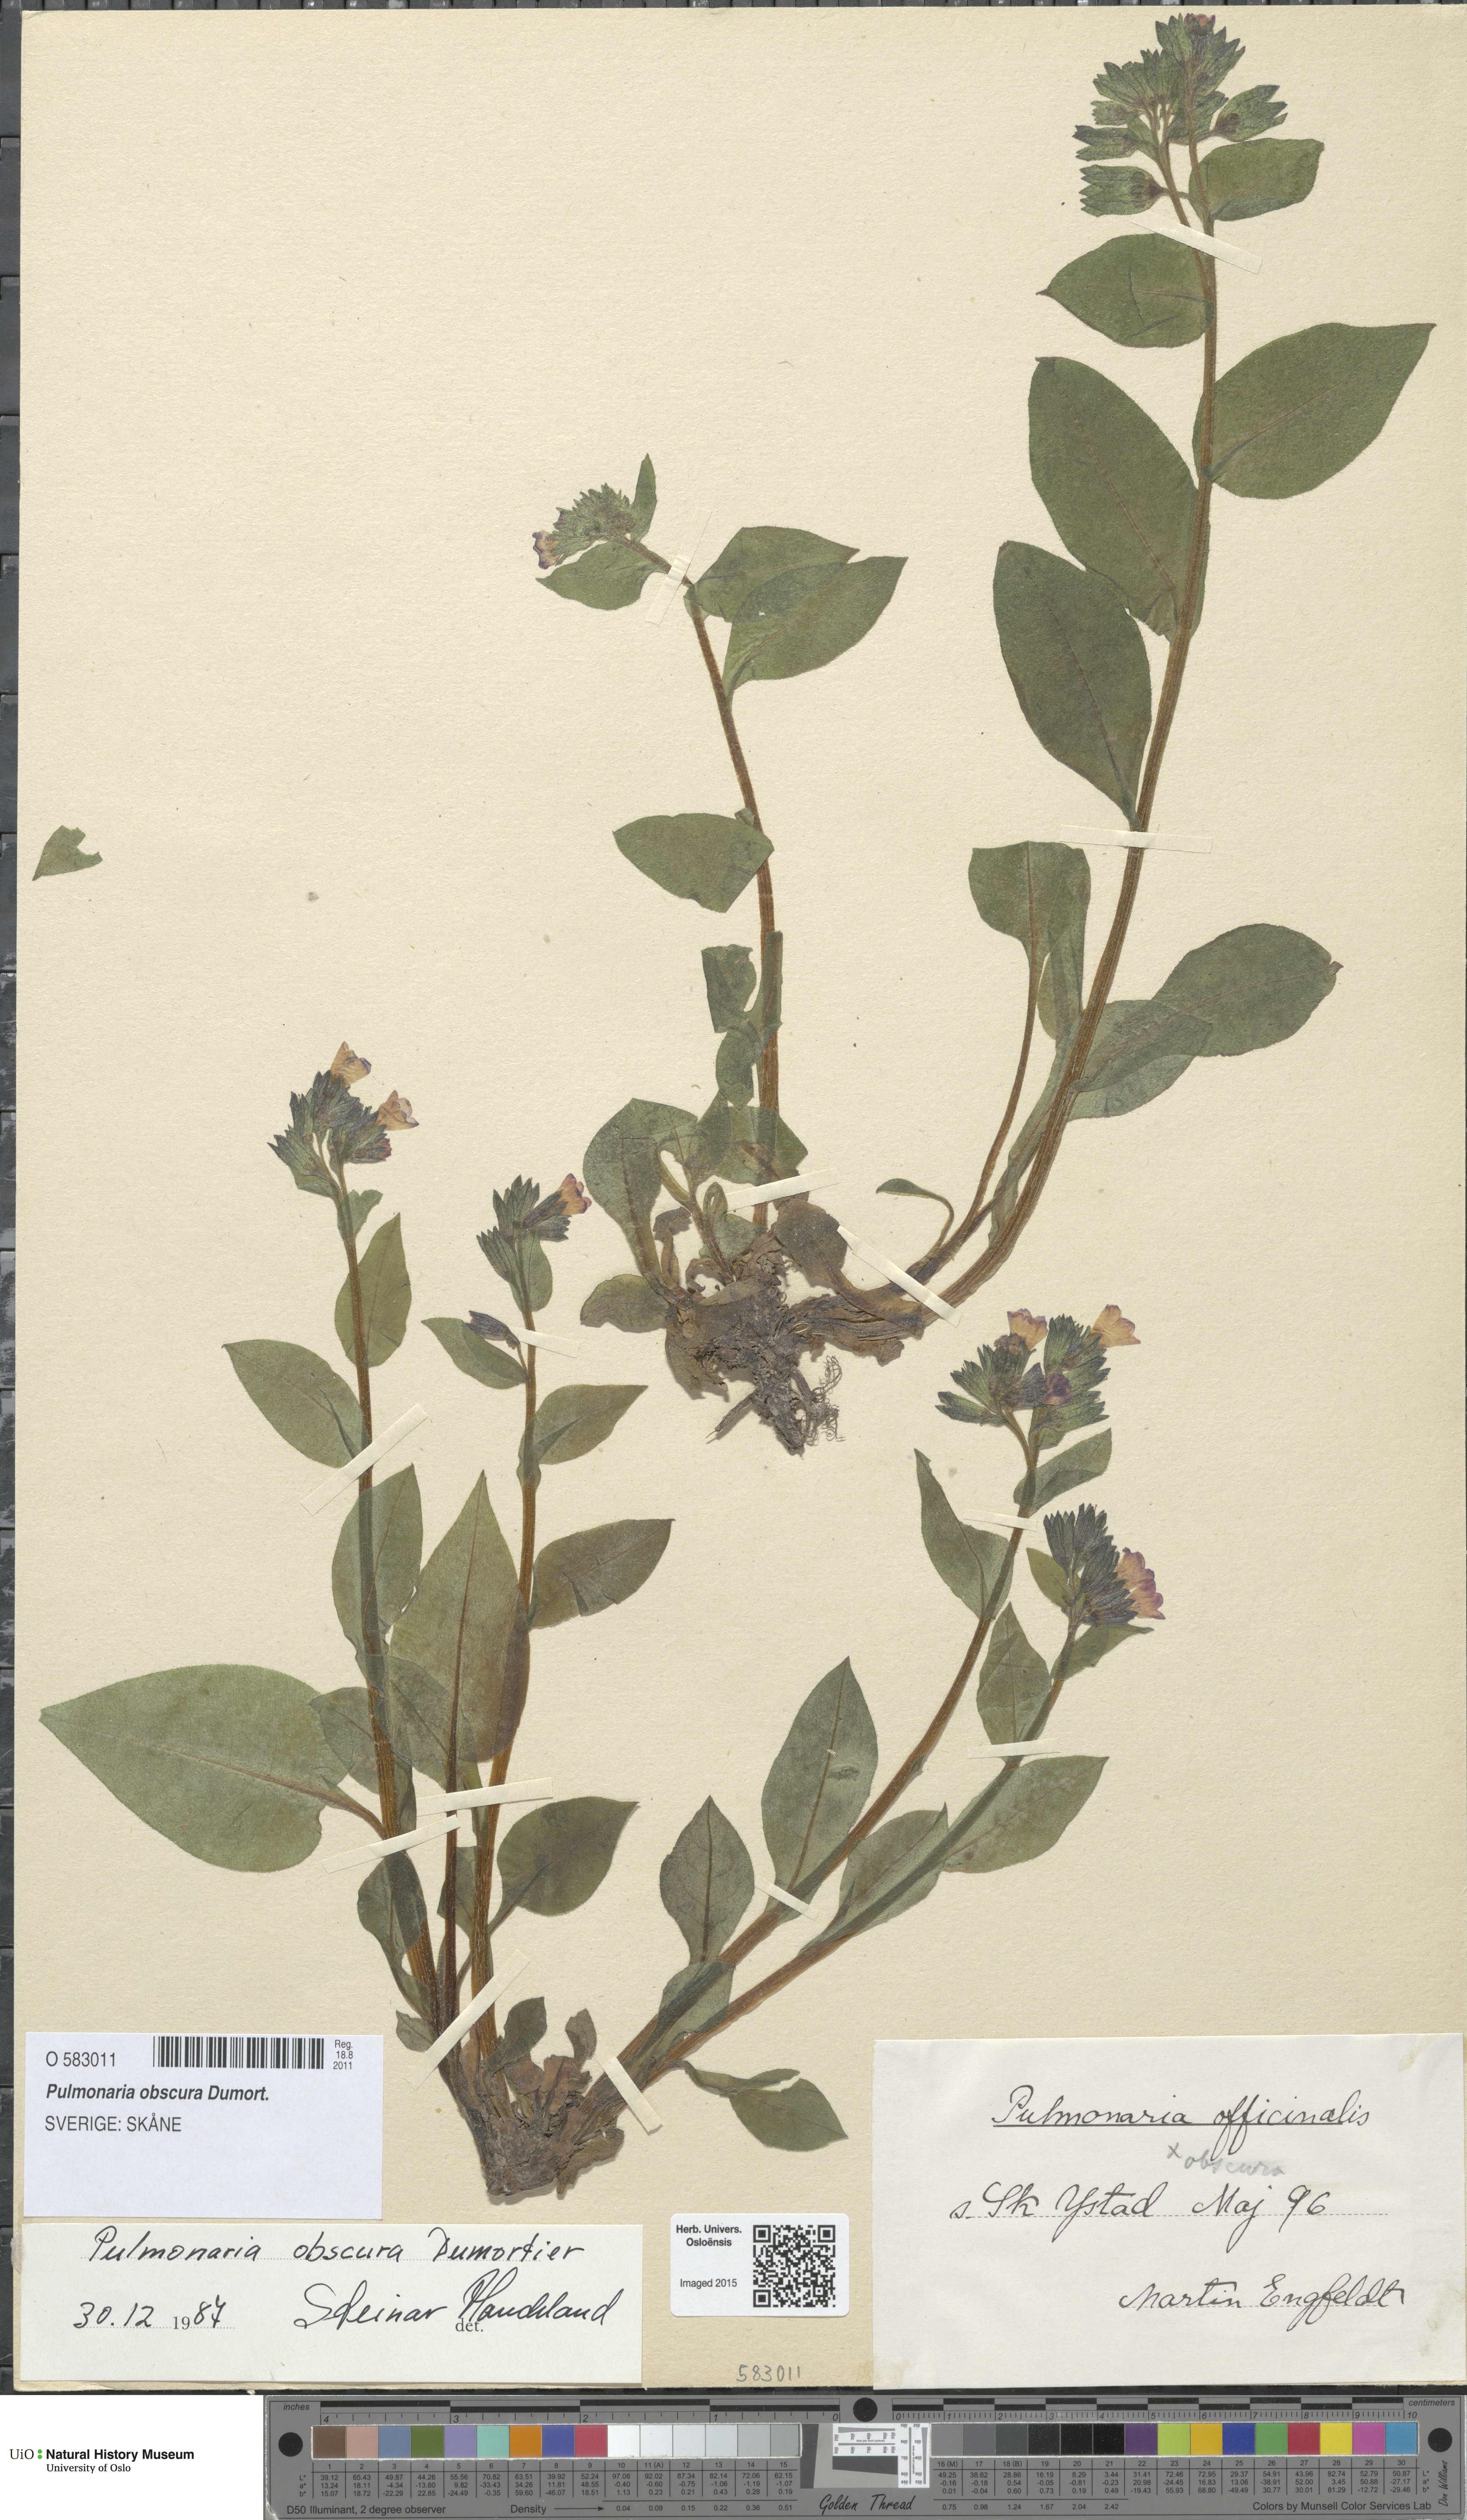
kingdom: Plantae
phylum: Tracheophyta
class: Magnoliopsida
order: Boraginales
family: Boraginaceae
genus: Pulmonaria
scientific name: Pulmonaria obscura
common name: Suffolk lungwort
